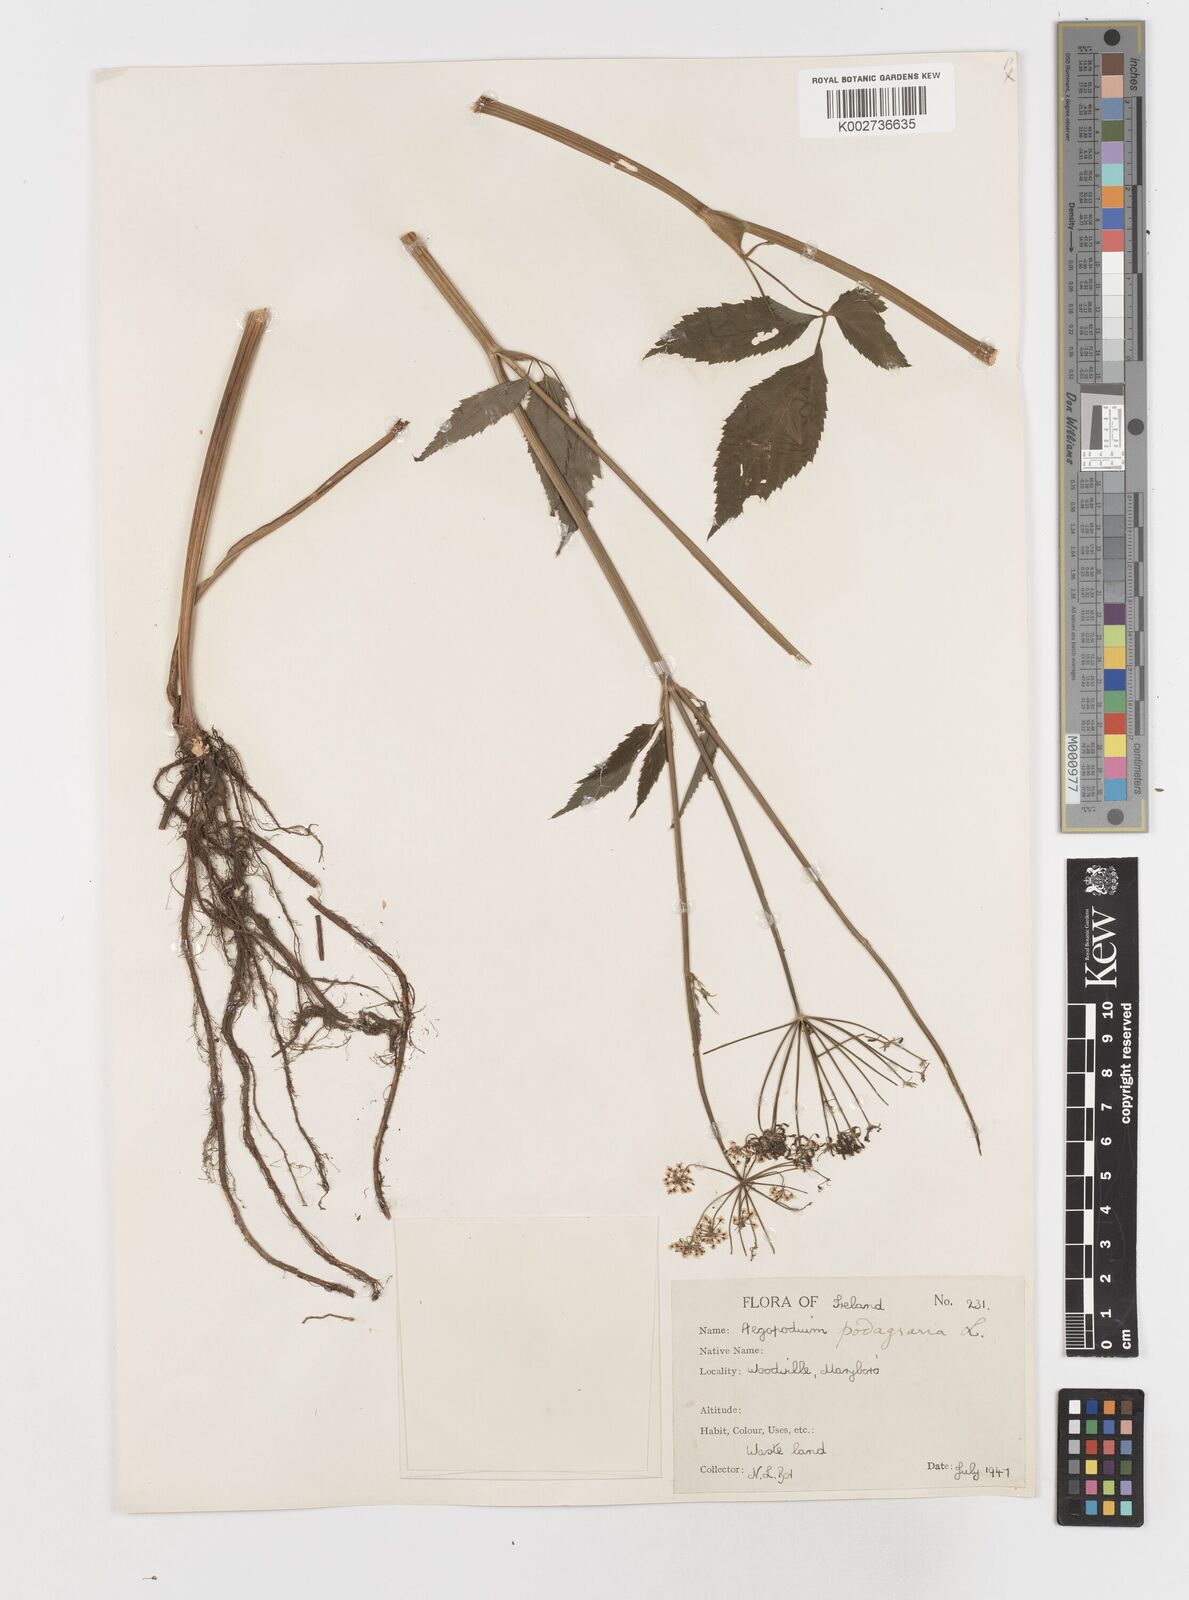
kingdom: Plantae
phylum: Tracheophyta
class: Magnoliopsida
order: Apiales
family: Apiaceae
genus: Aegopodium
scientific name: Aegopodium podagraria
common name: Ground-elder
